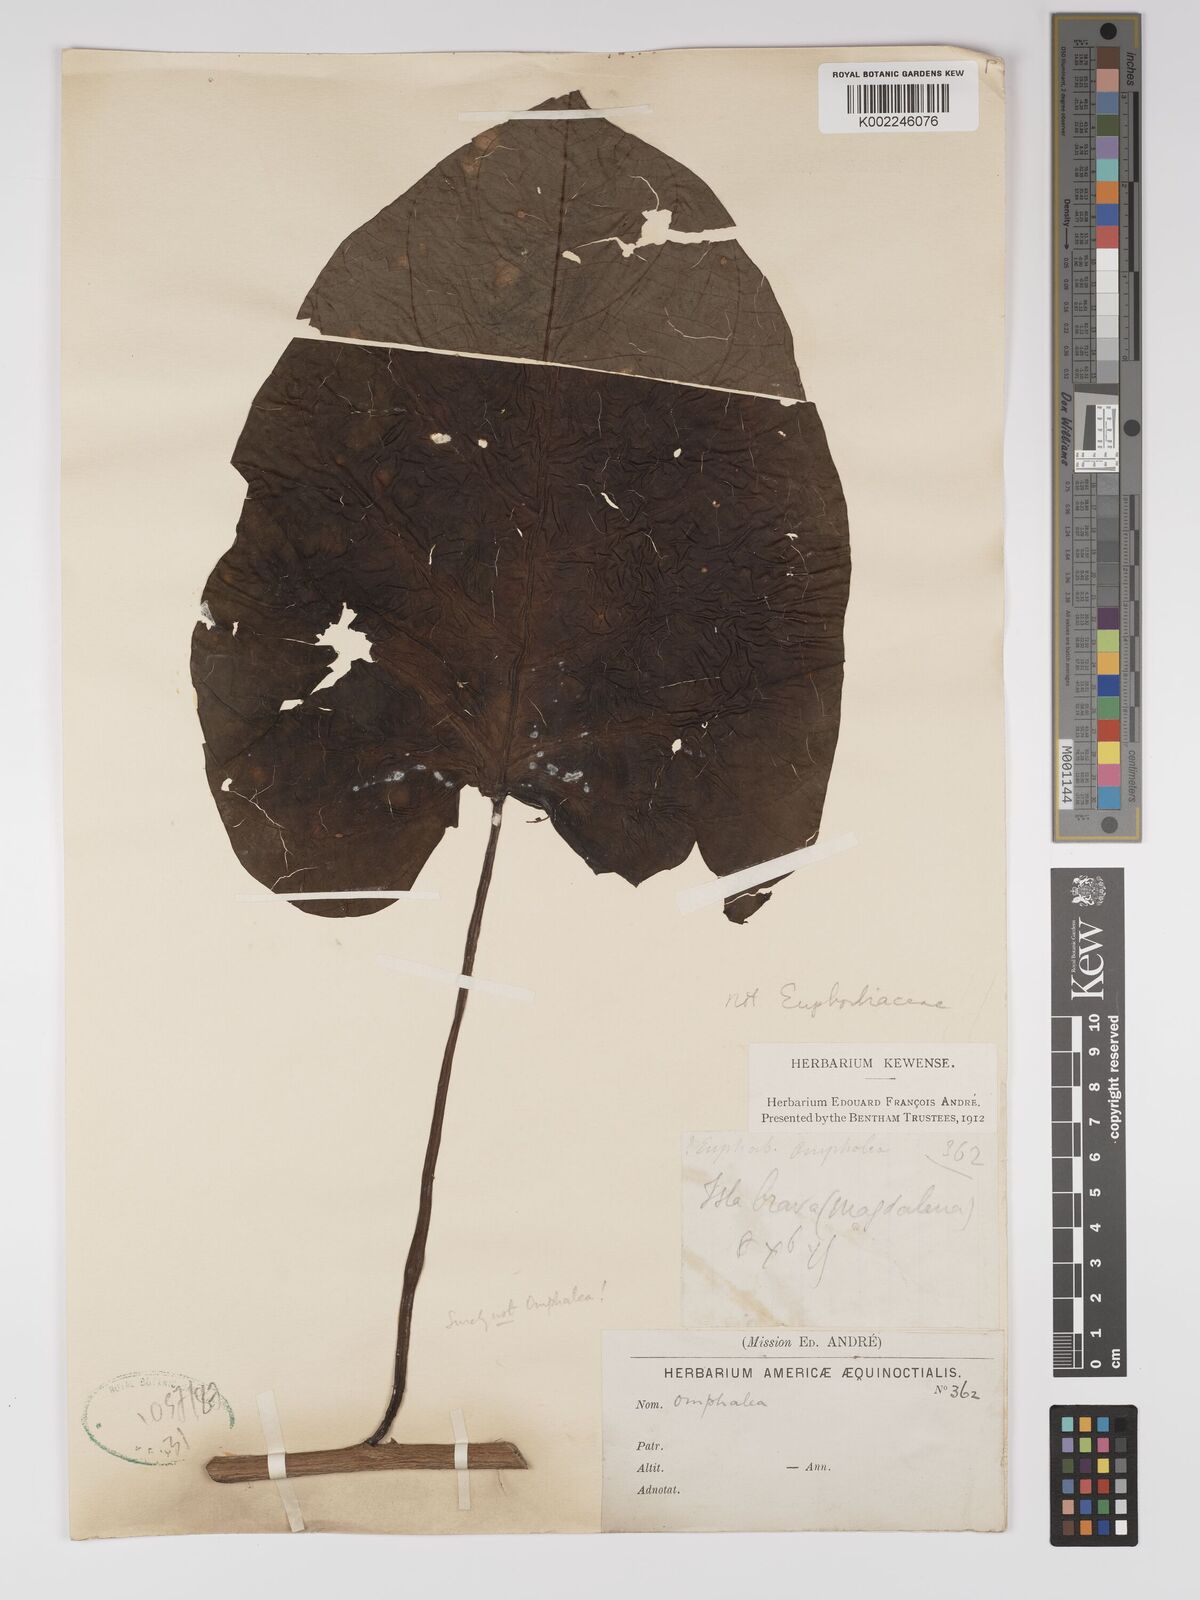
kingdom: Plantae
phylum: Tracheophyta
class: Magnoliopsida
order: Malpighiales
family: Euphorbiaceae
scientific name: Euphorbiaceae
